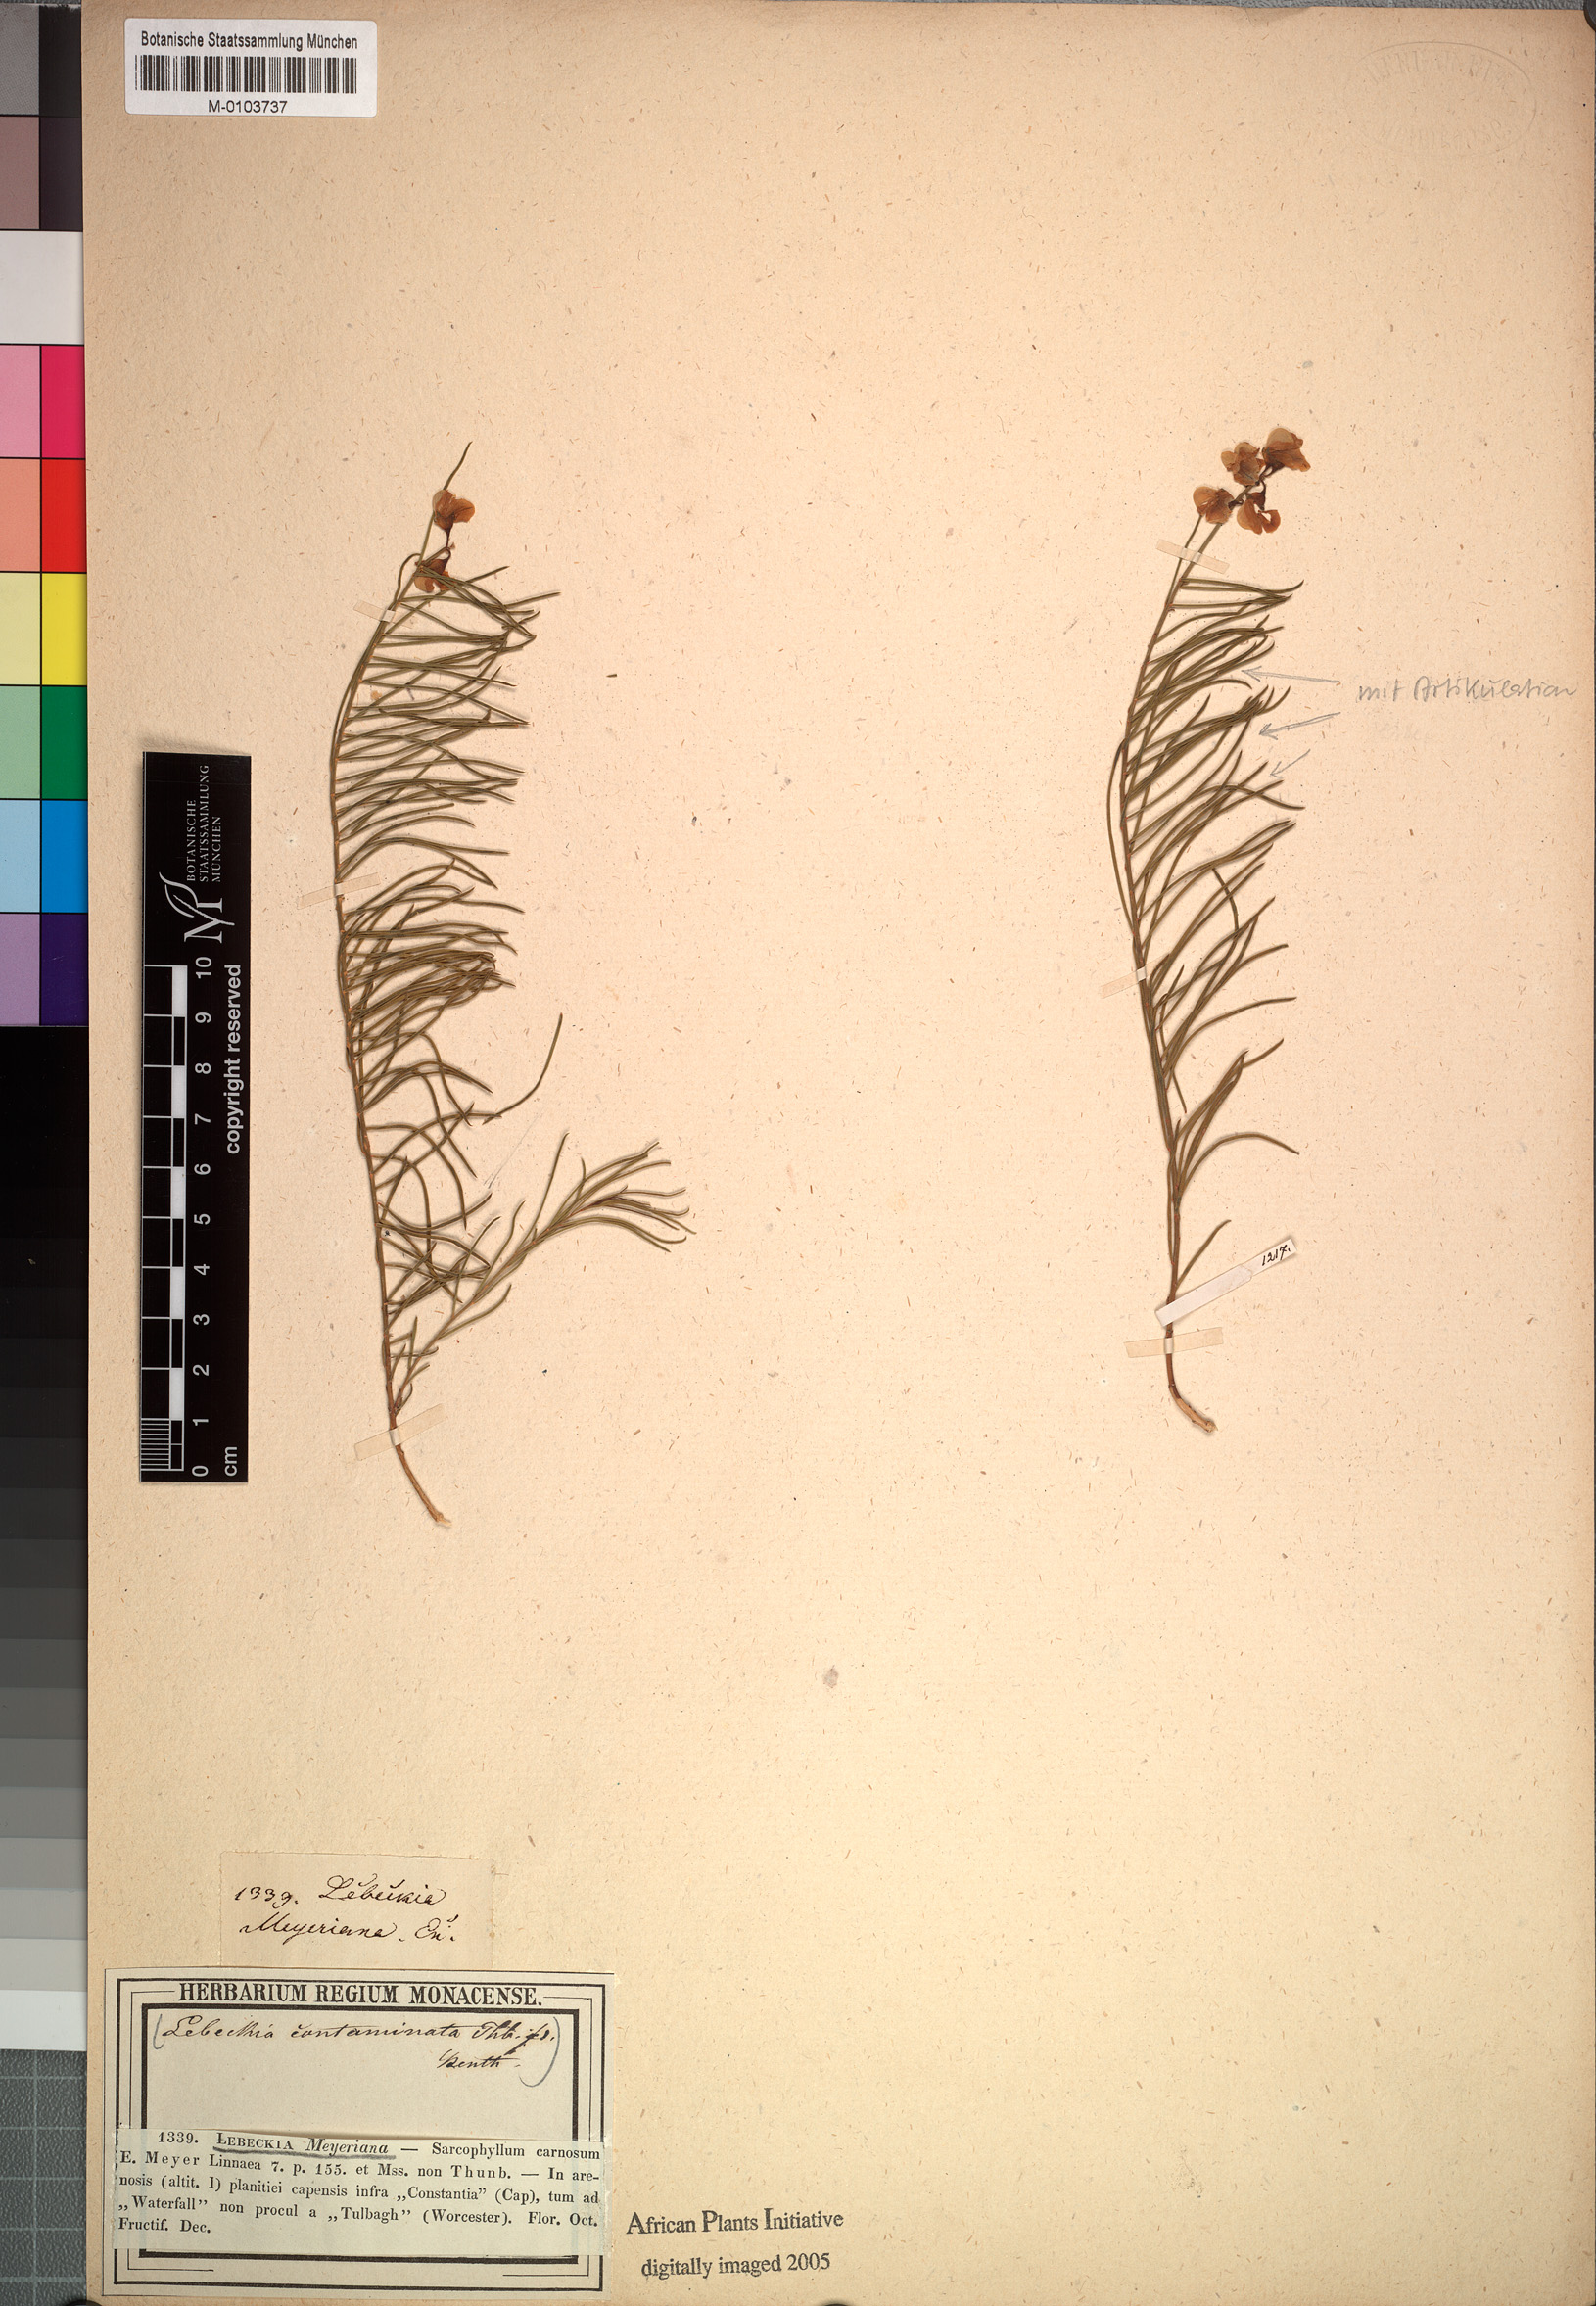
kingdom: Plantae
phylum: Tracheophyta
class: Magnoliopsida
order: Fabales
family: Fabaceae
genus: Lebeckia
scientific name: Lebeckia meyeriana
